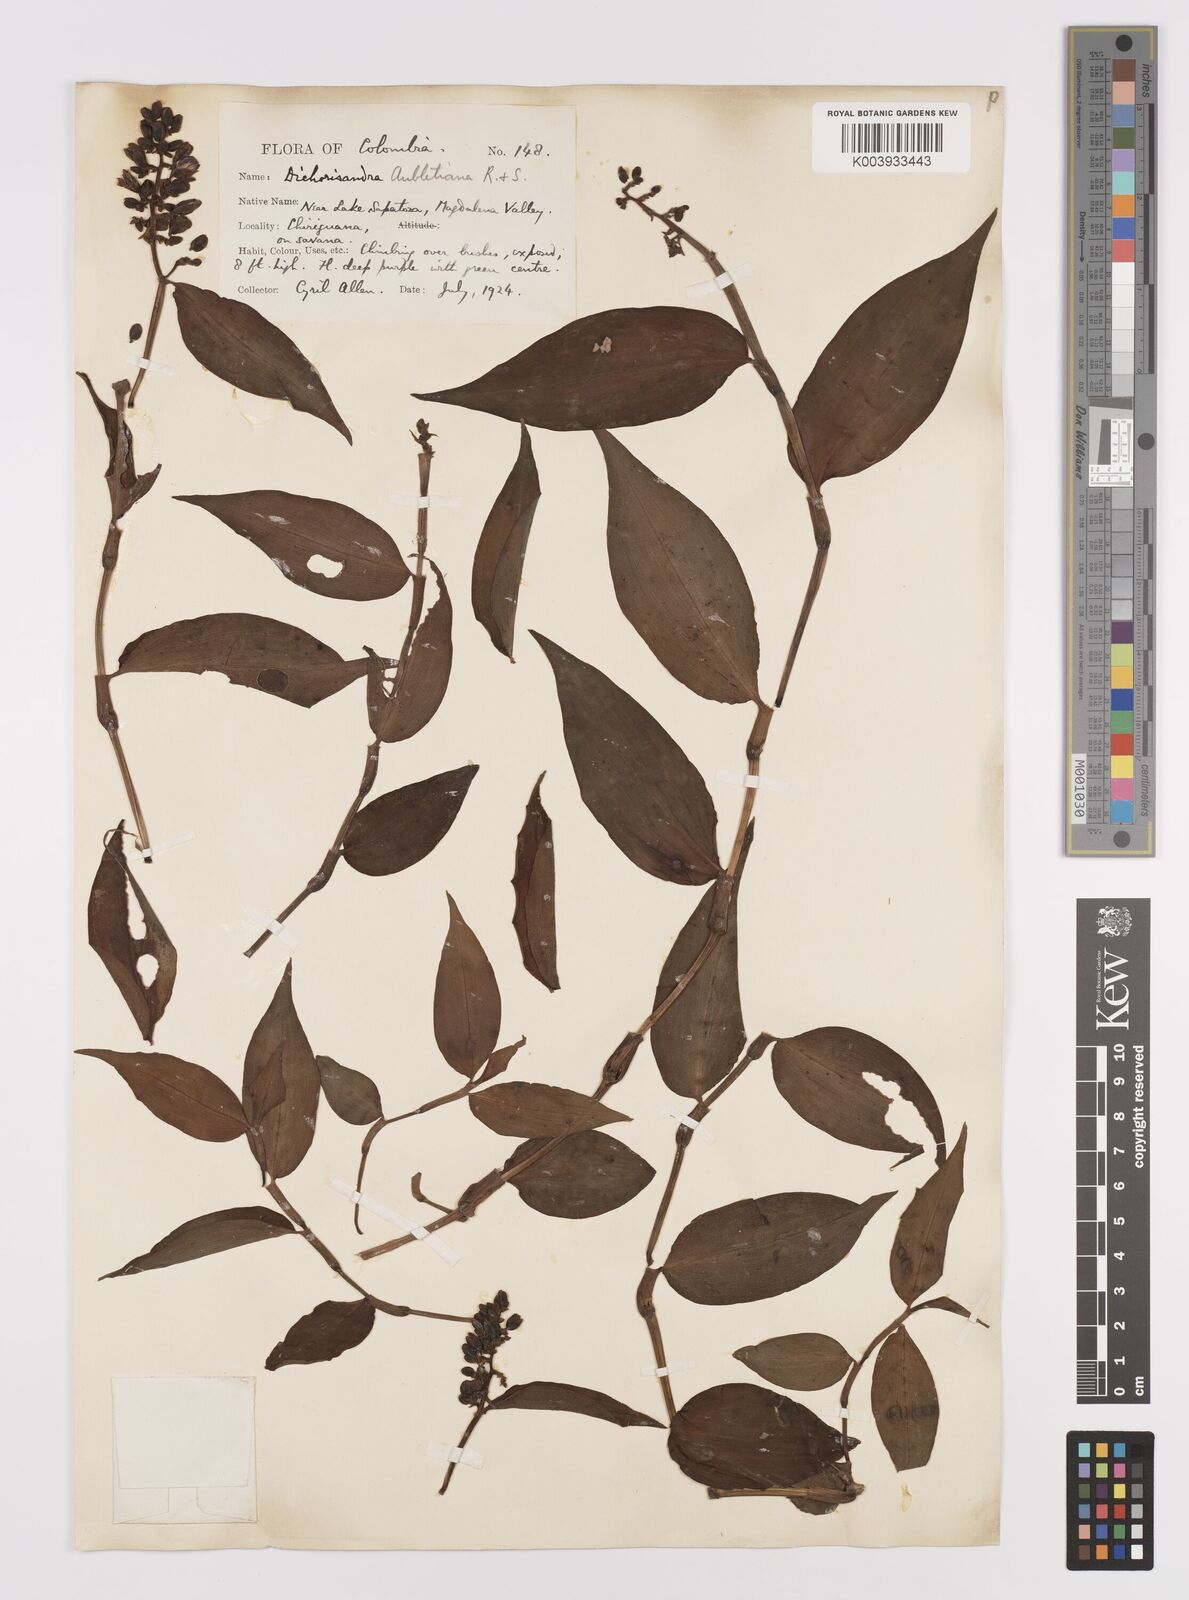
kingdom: Plantae
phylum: Tracheophyta
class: Liliopsida
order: Commelinales
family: Commelinaceae
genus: Dichorisandra
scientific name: Dichorisandra hexandra
